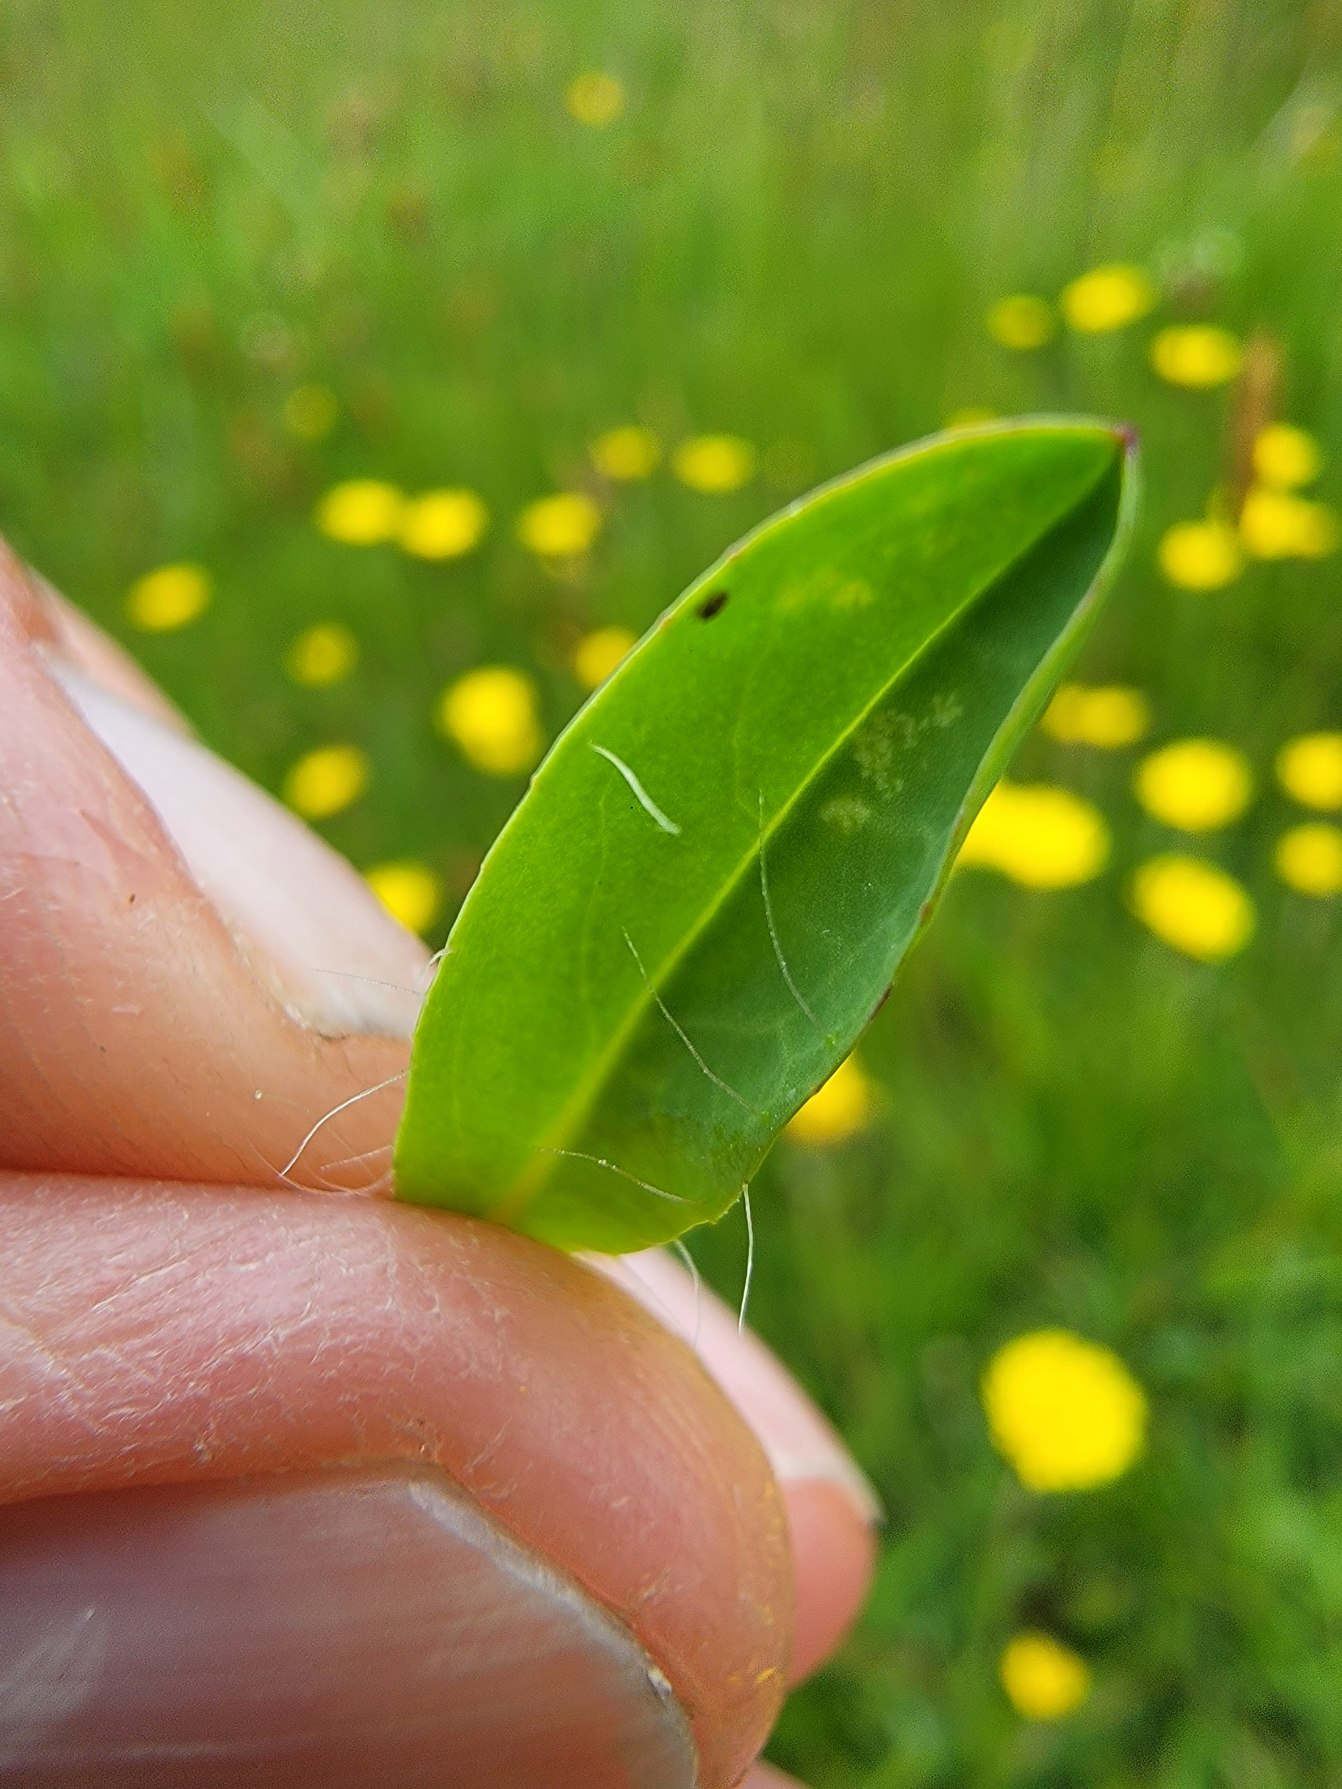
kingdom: Plantae
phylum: Tracheophyta
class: Magnoliopsida
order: Asterales
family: Asteraceae
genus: Pilosella
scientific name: Pilosella lactucella
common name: Lancetbladet høgeurt
